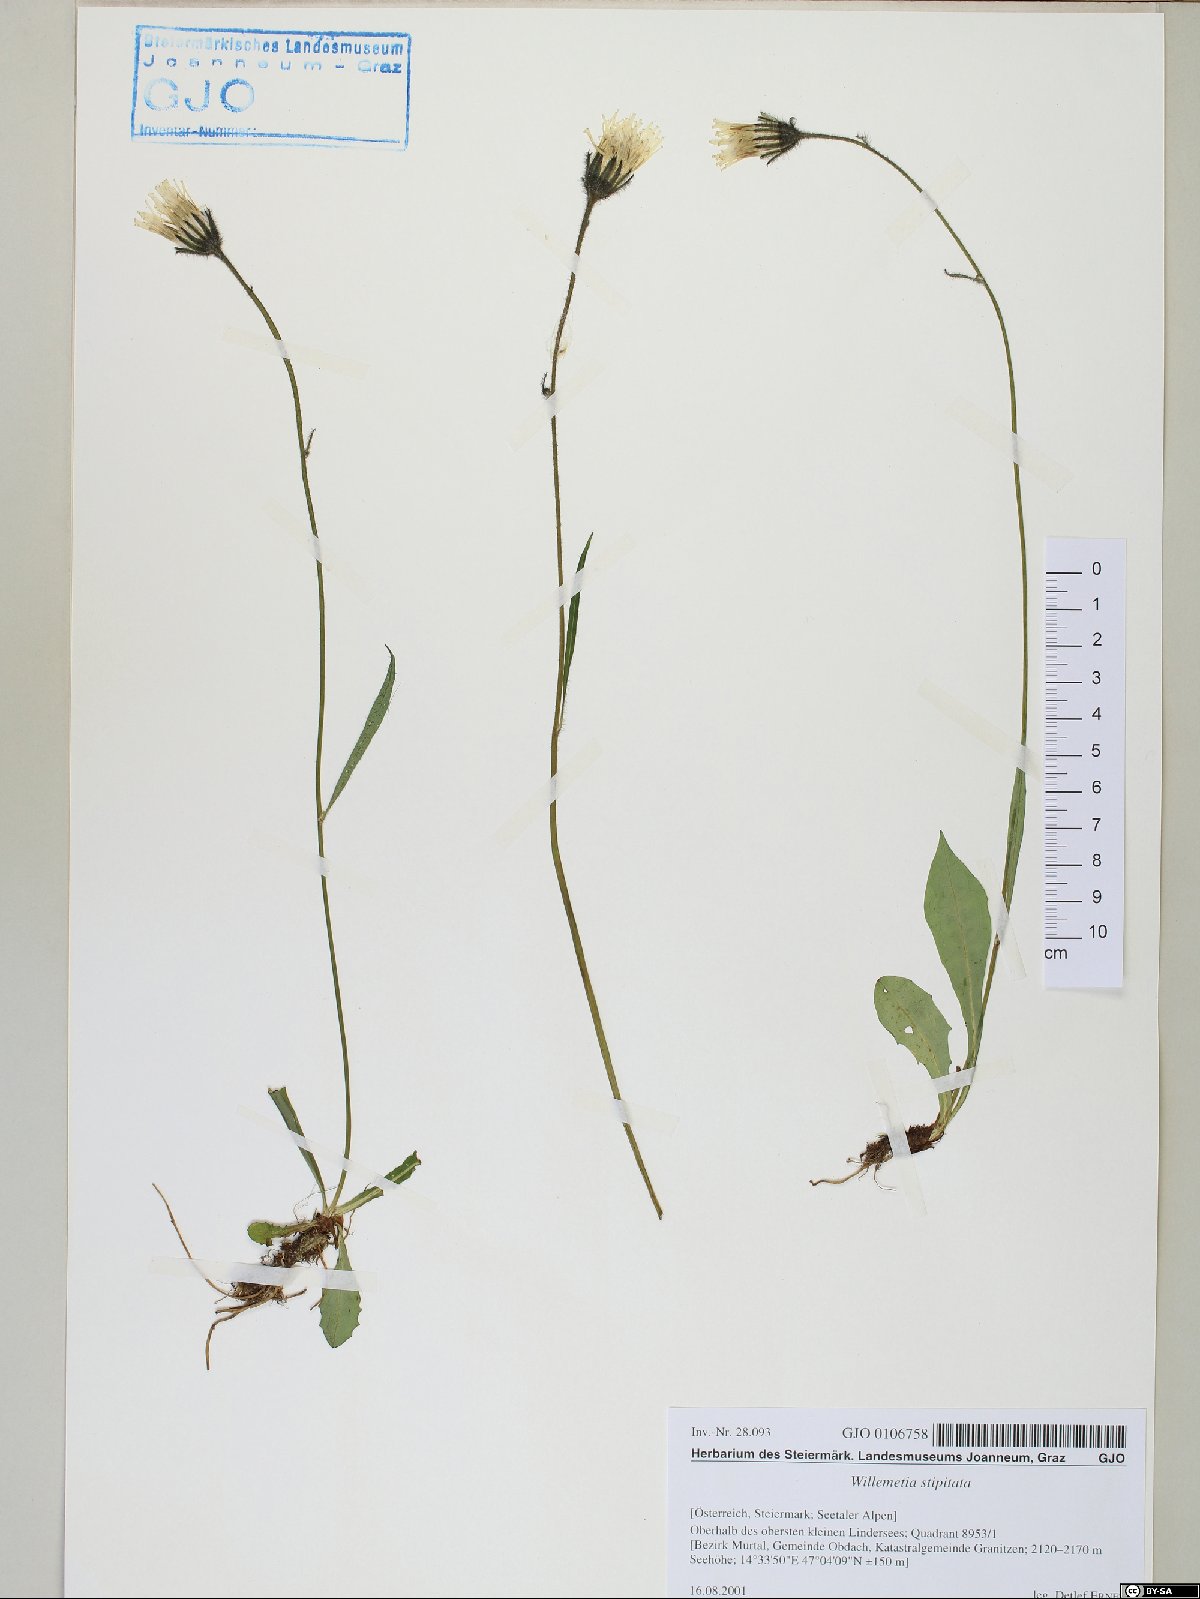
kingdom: Plantae
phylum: Tracheophyta
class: Magnoliopsida
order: Asterales
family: Asteraceae
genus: Willemetia
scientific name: Willemetia stipitata
